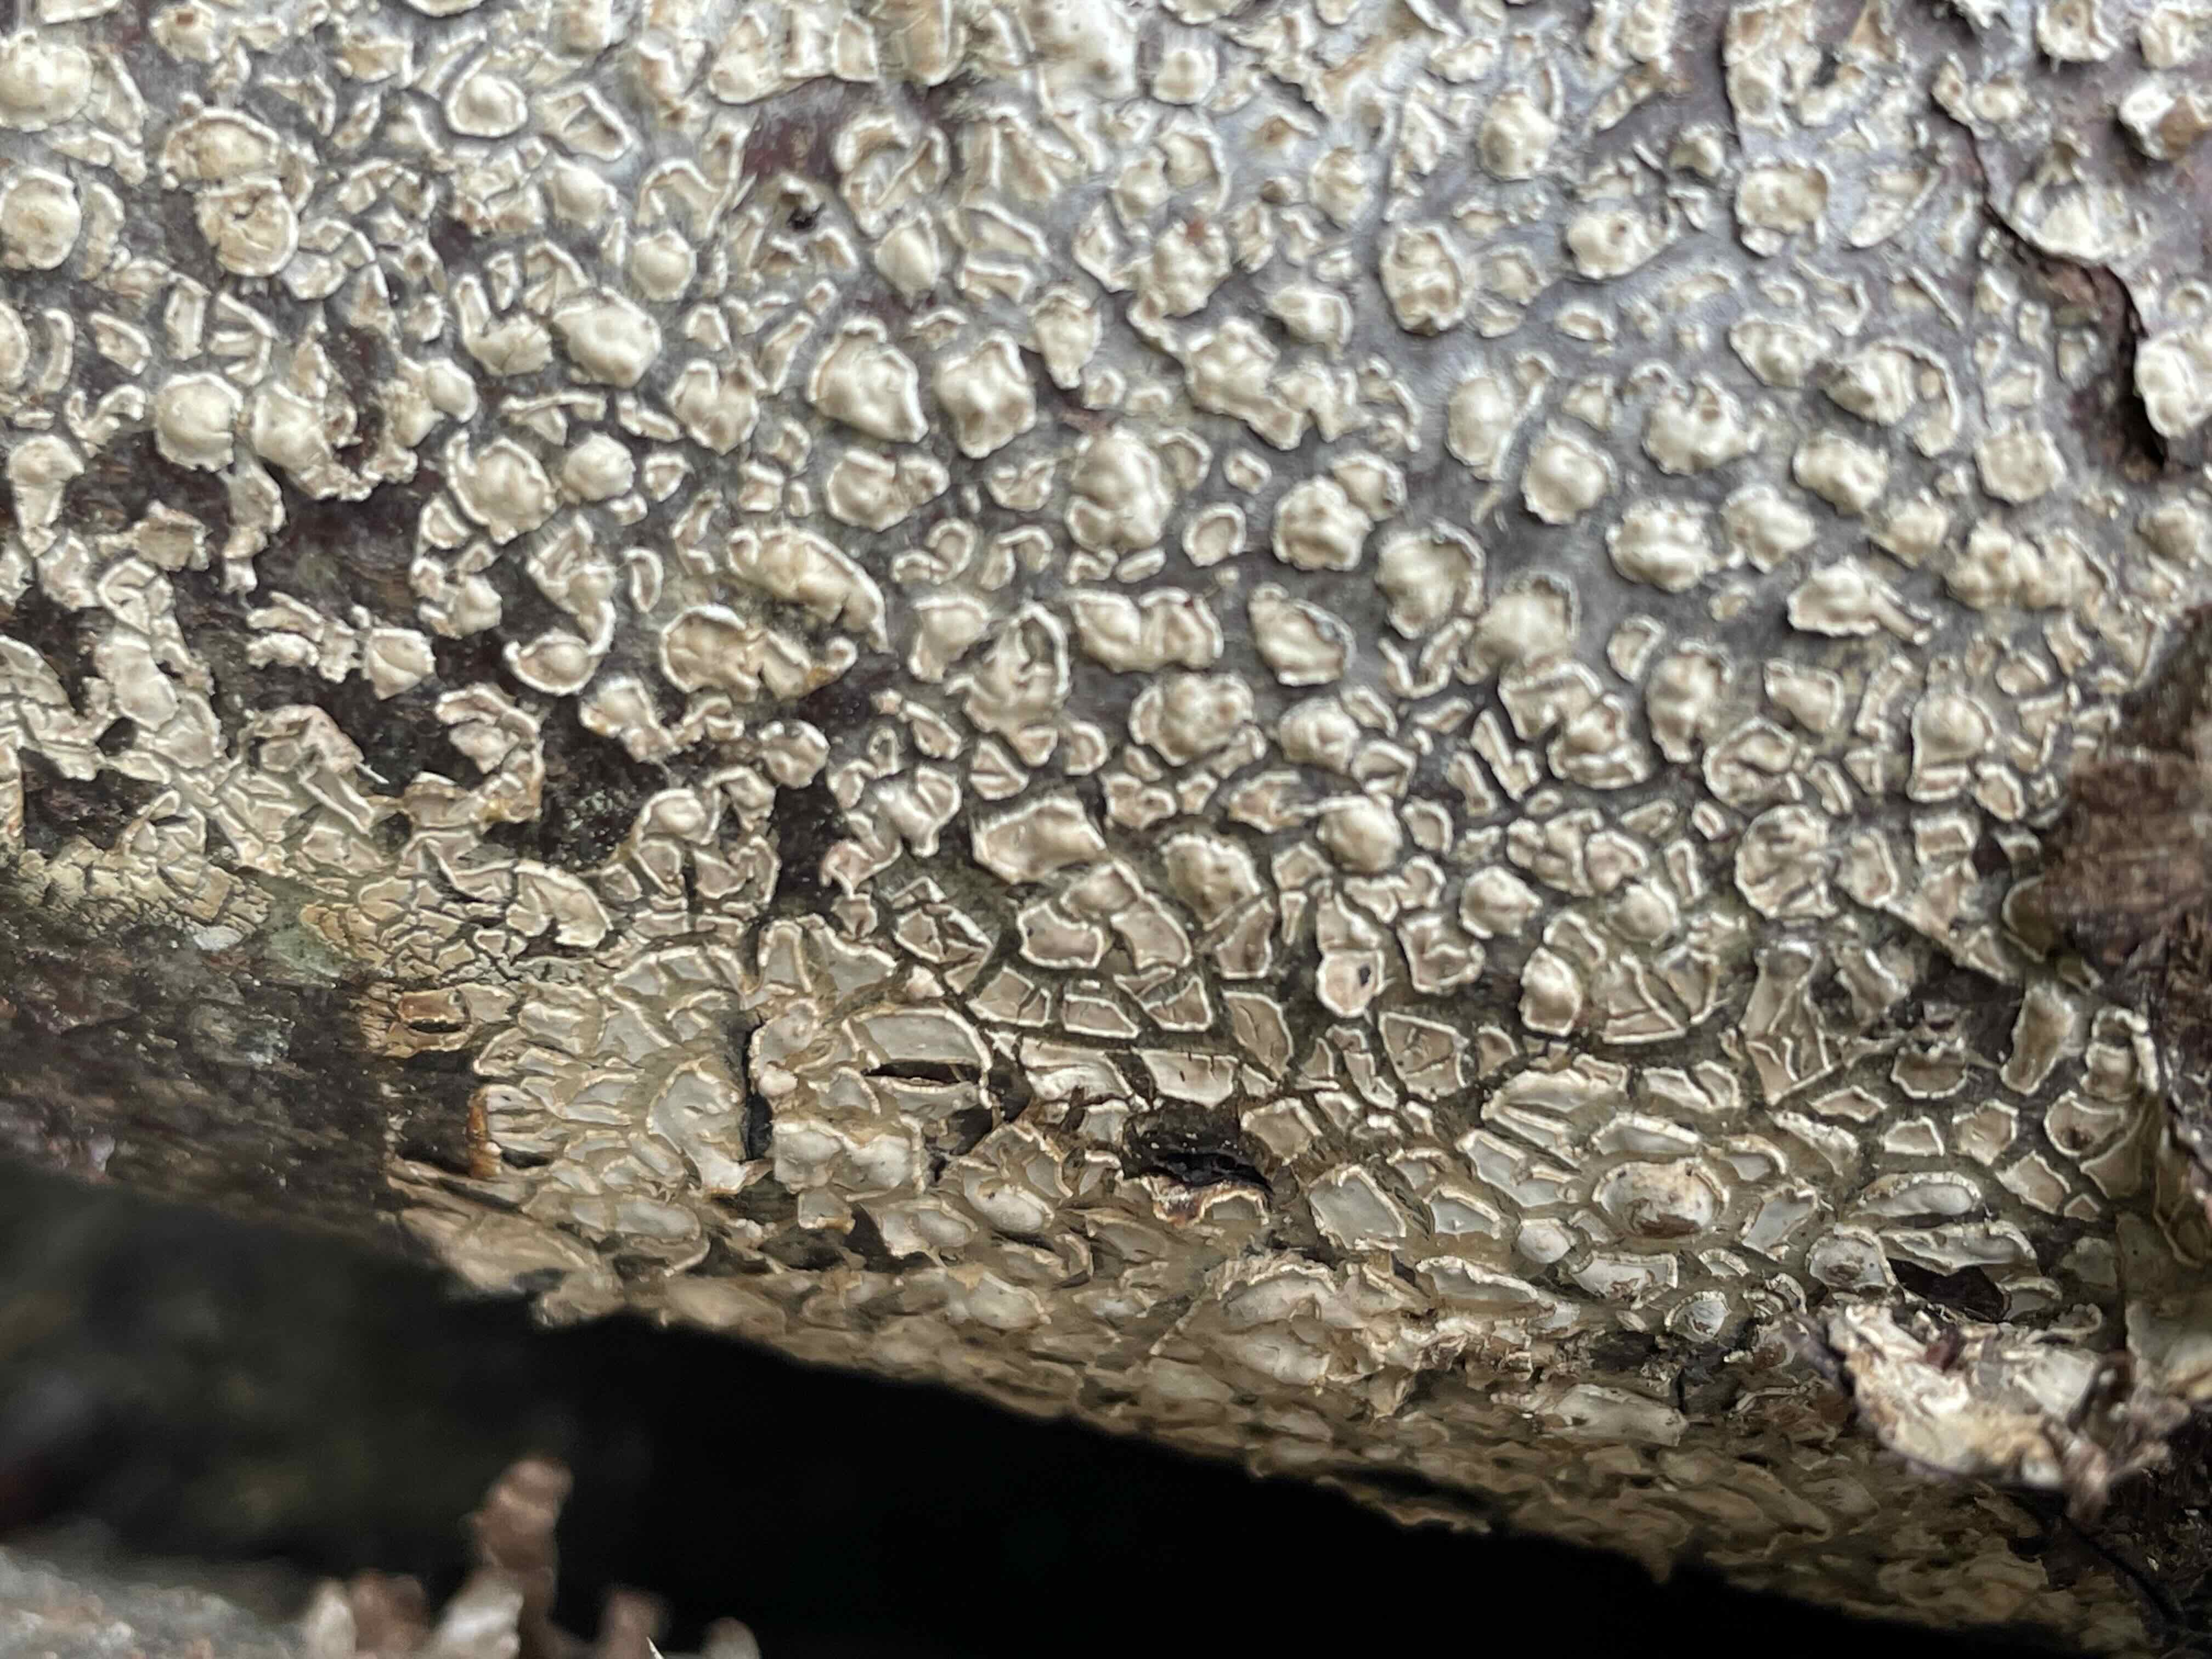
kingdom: Fungi
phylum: Basidiomycota
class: Agaricomycetes
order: Agaricales
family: Physalacriaceae
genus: Cylindrobasidium
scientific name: Cylindrobasidium evolvens
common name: sprækkehinde
